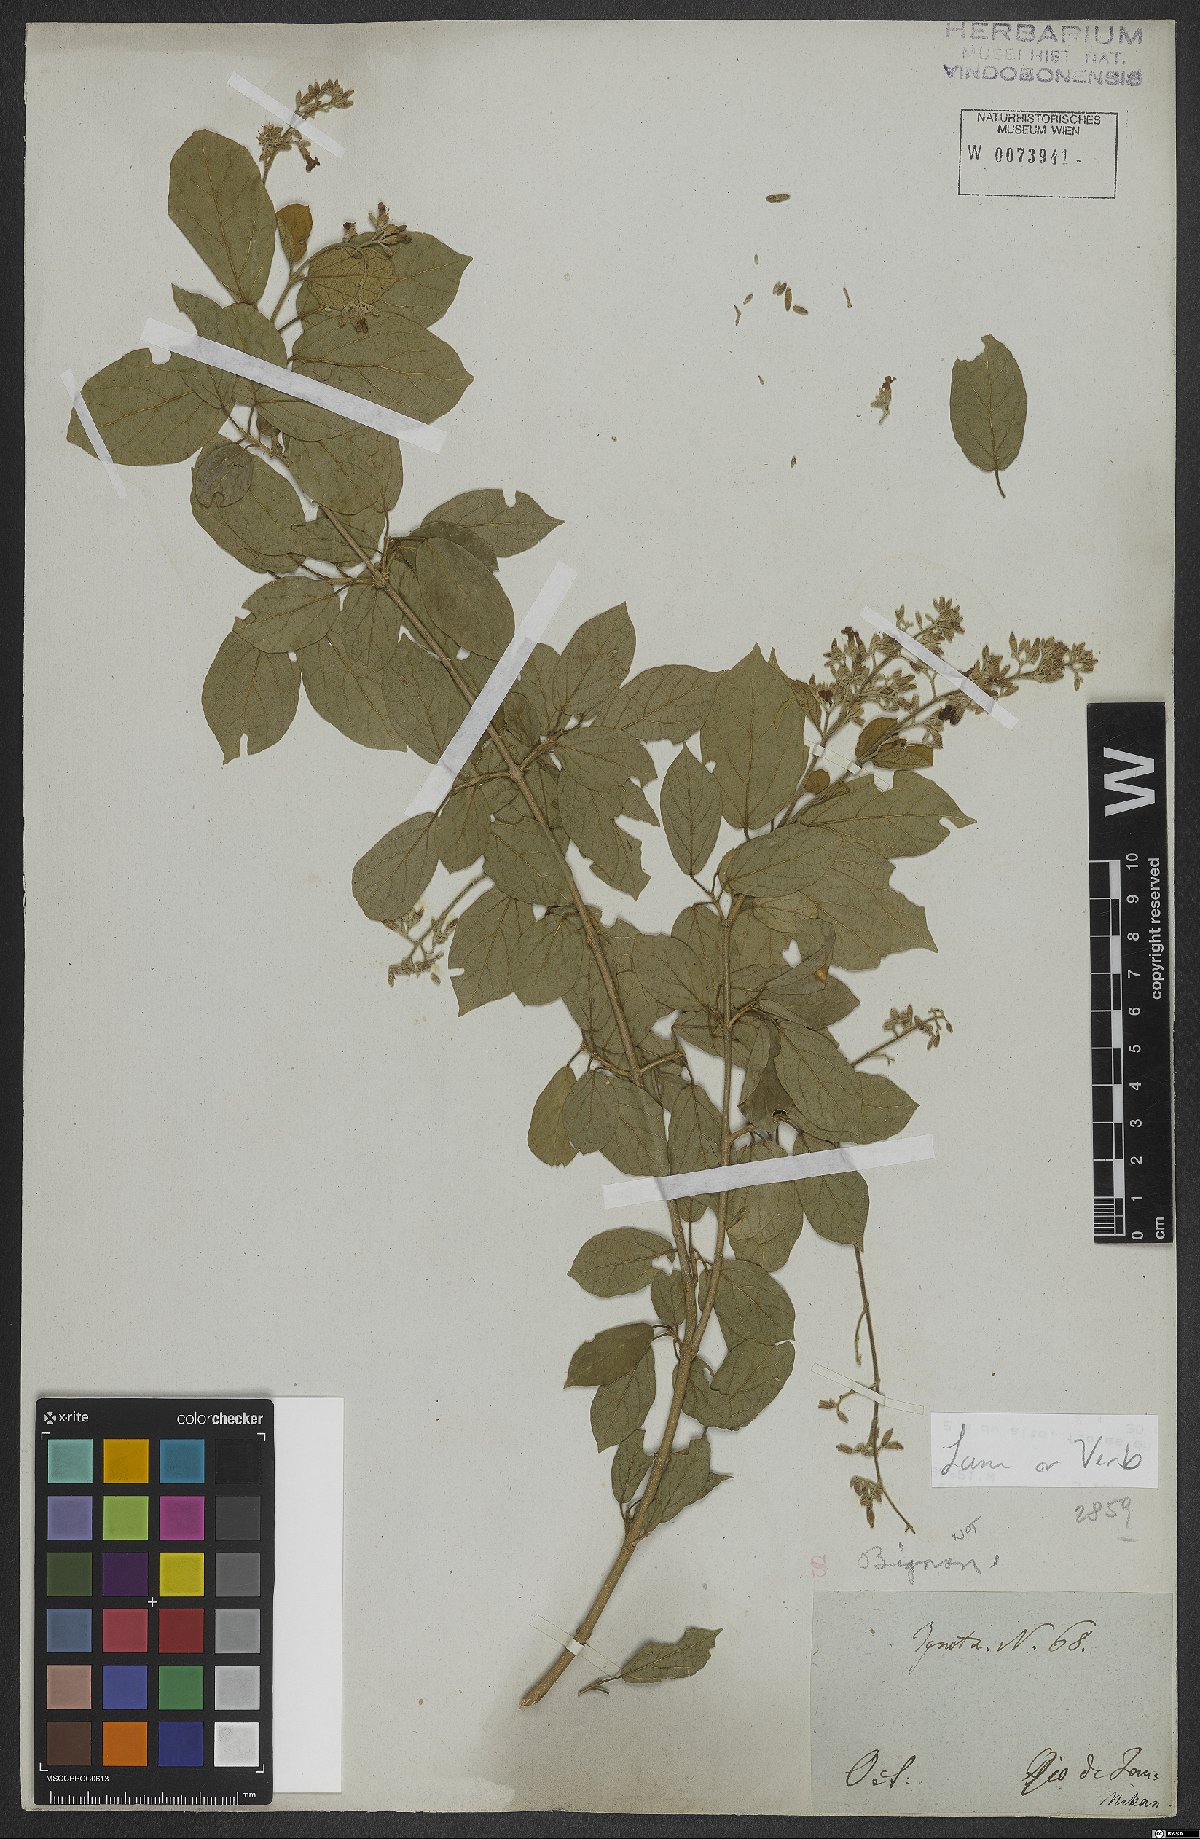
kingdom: Plantae
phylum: Tracheophyta
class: Magnoliopsida
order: Lamiales
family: Verbenaceae
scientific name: Verbenaceae
